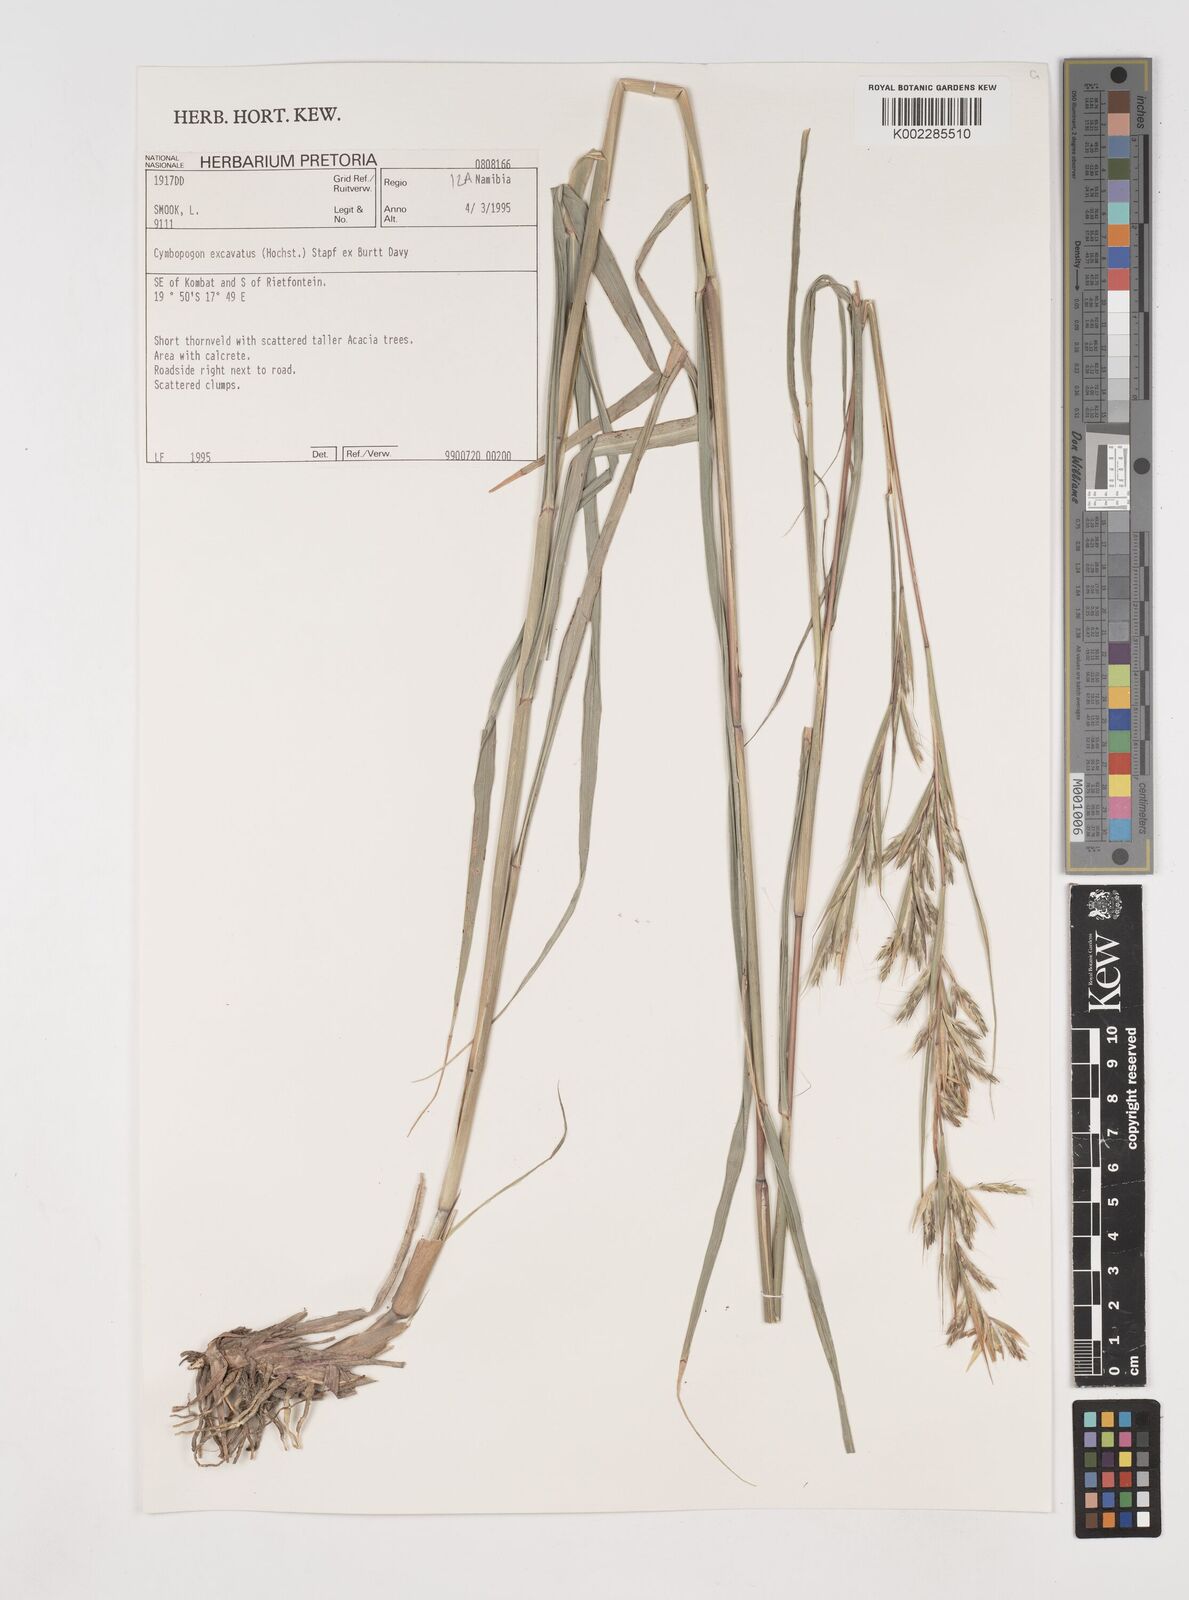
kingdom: Plantae
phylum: Tracheophyta
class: Liliopsida
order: Poales
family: Poaceae
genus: Cymbopogon
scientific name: Cymbopogon caesius
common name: Kachi grass
